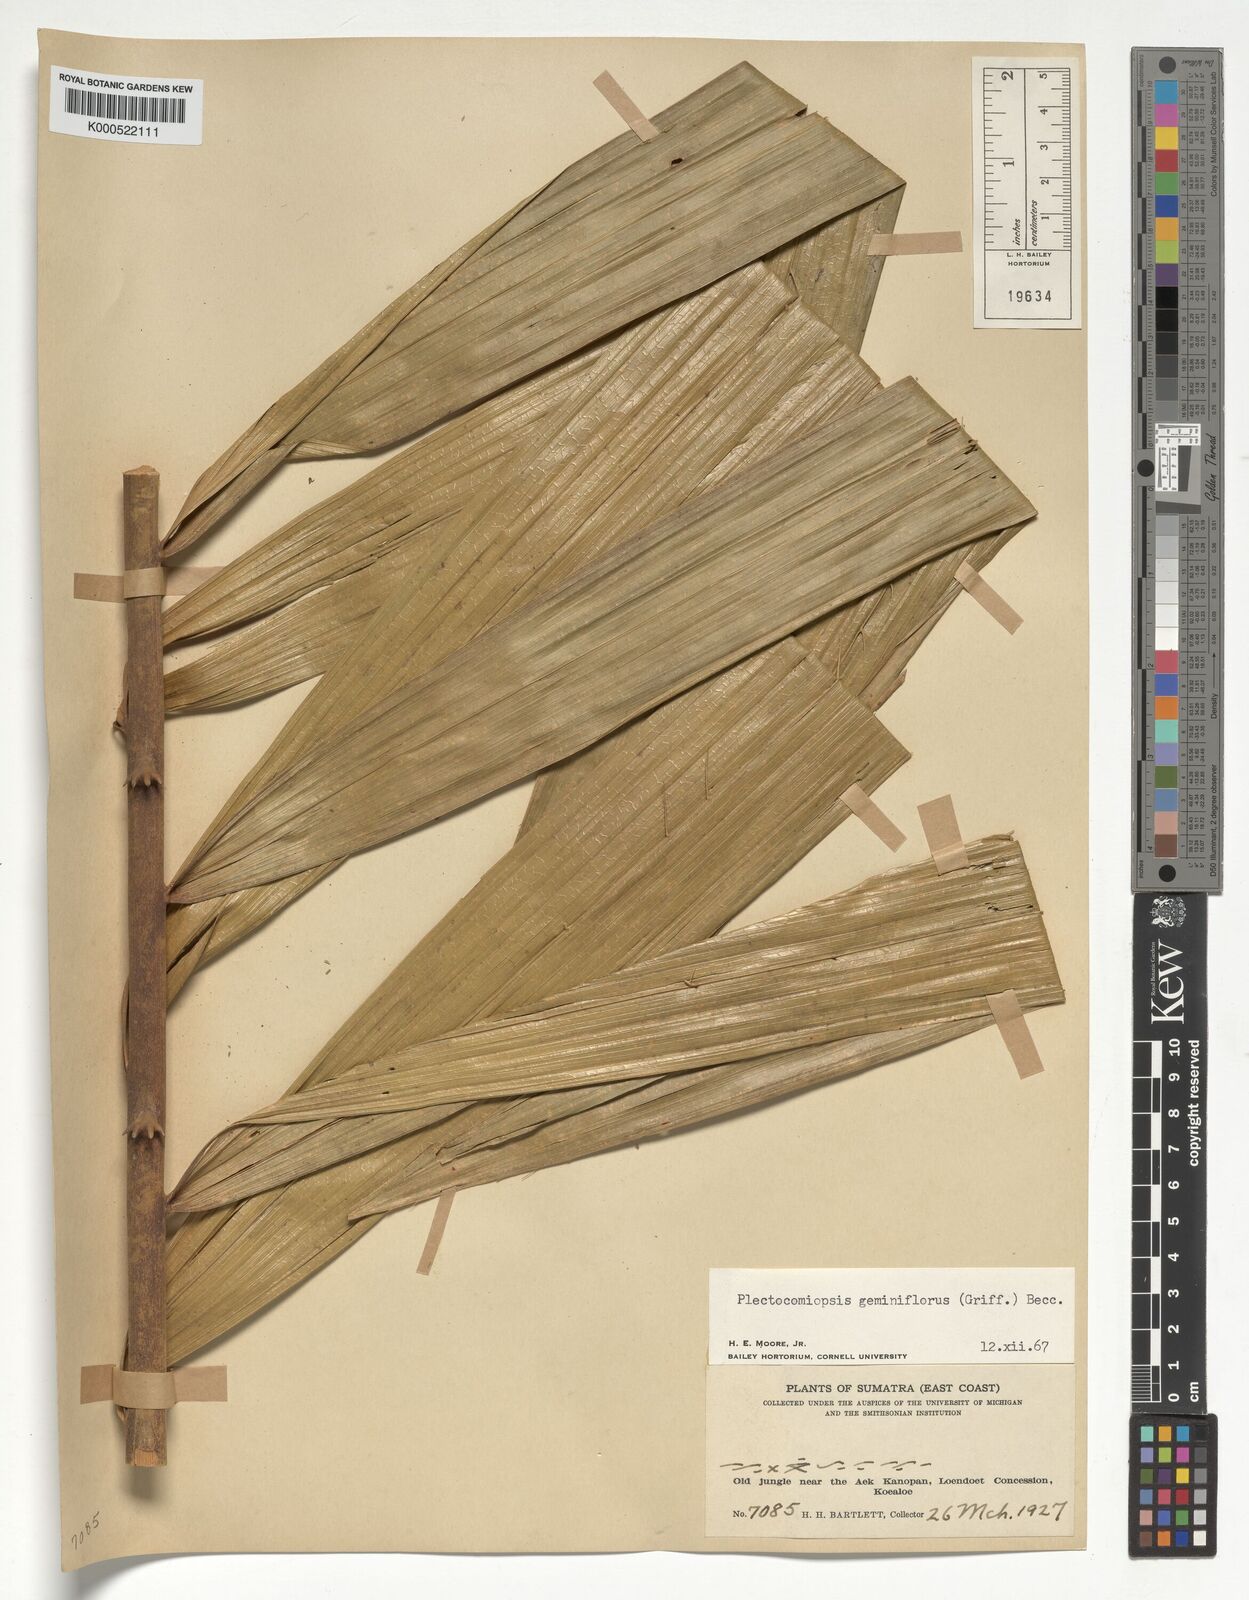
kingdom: Plantae
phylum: Tracheophyta
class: Liliopsida
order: Arecales
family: Arecaceae
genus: Plectocomiopsis
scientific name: Plectocomiopsis geminiflora
